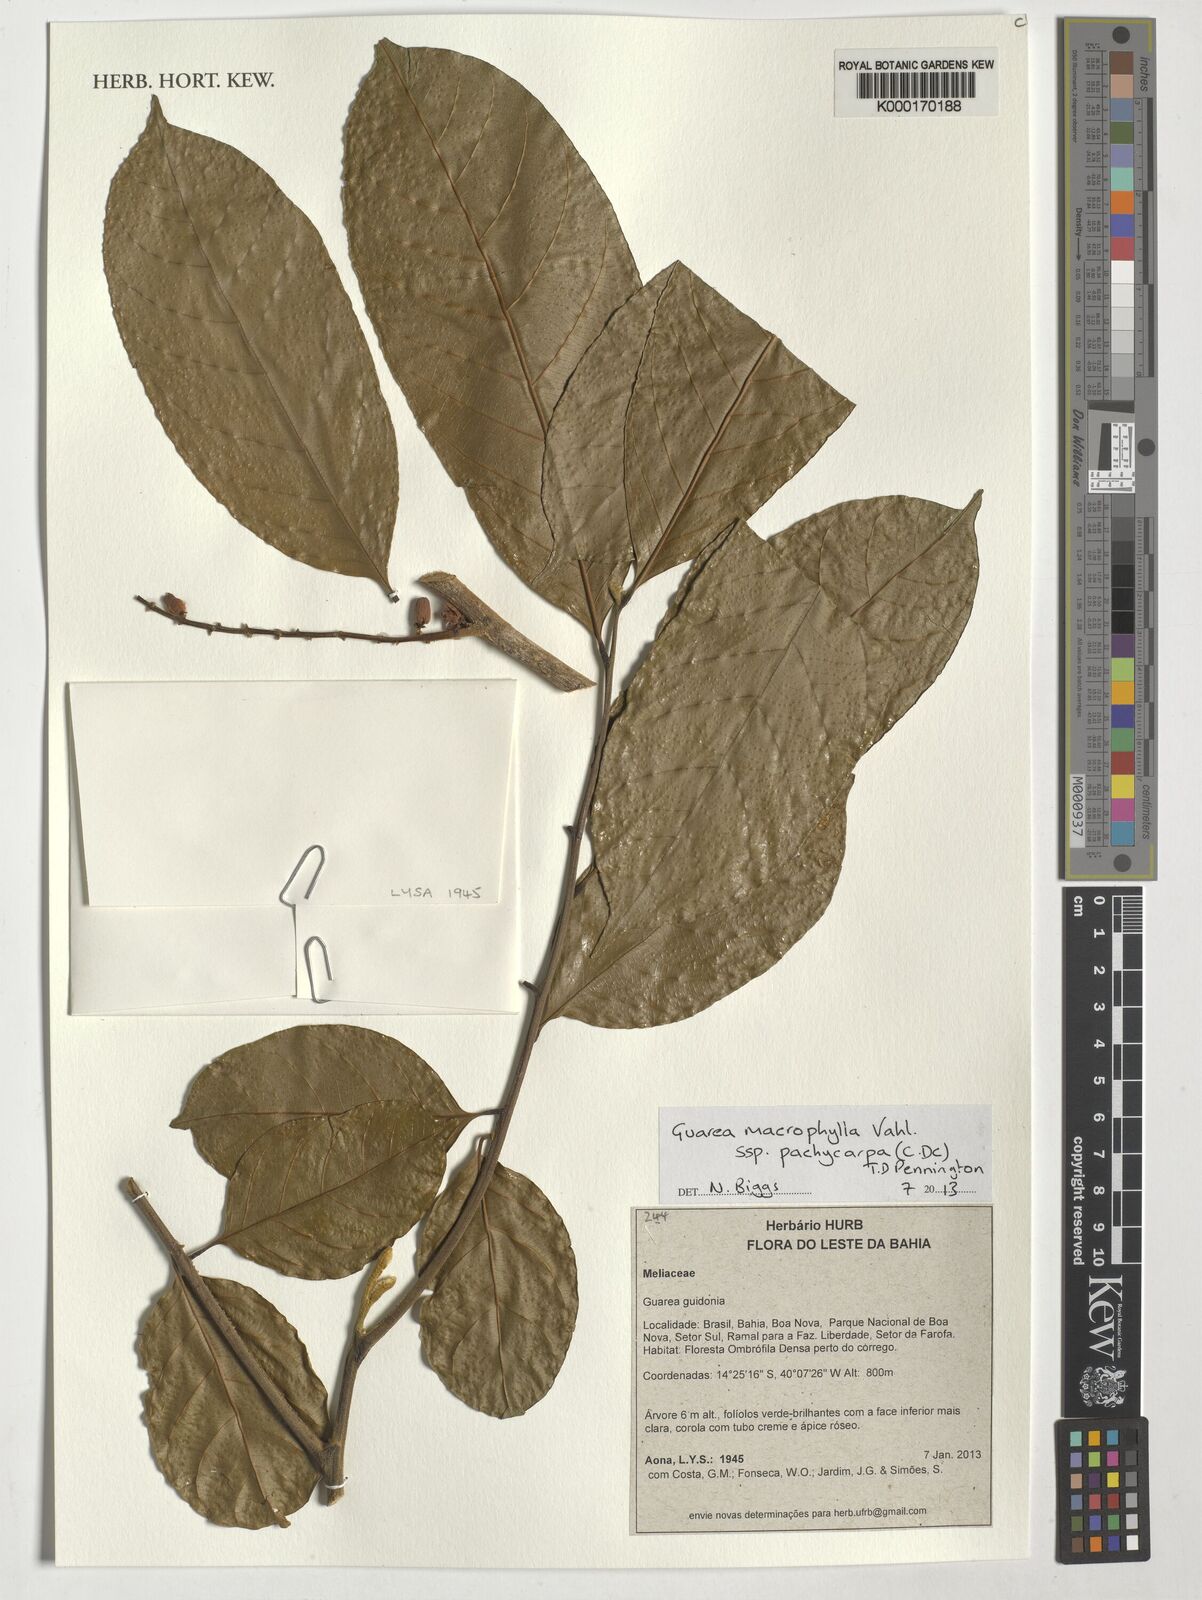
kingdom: Plantae
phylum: Tracheophyta
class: Magnoliopsida
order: Sapindales
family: Meliaceae
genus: Guarea
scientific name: Guarea macrophylla
